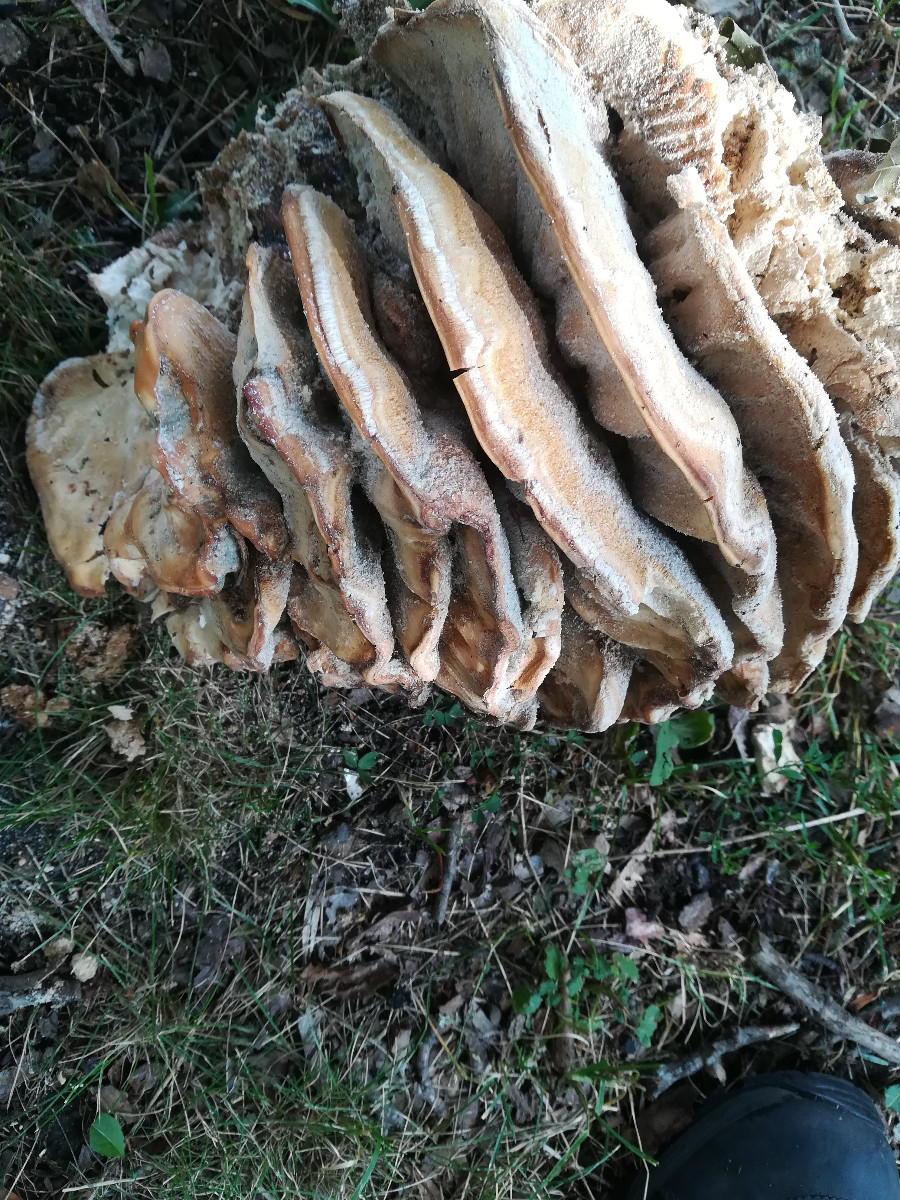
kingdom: Fungi
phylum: Basidiomycota
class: Agaricomycetes
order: Polyporales
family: Meripilaceae
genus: Meripilus
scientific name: Meripilus giganteus
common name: kæmpeporesvamp
